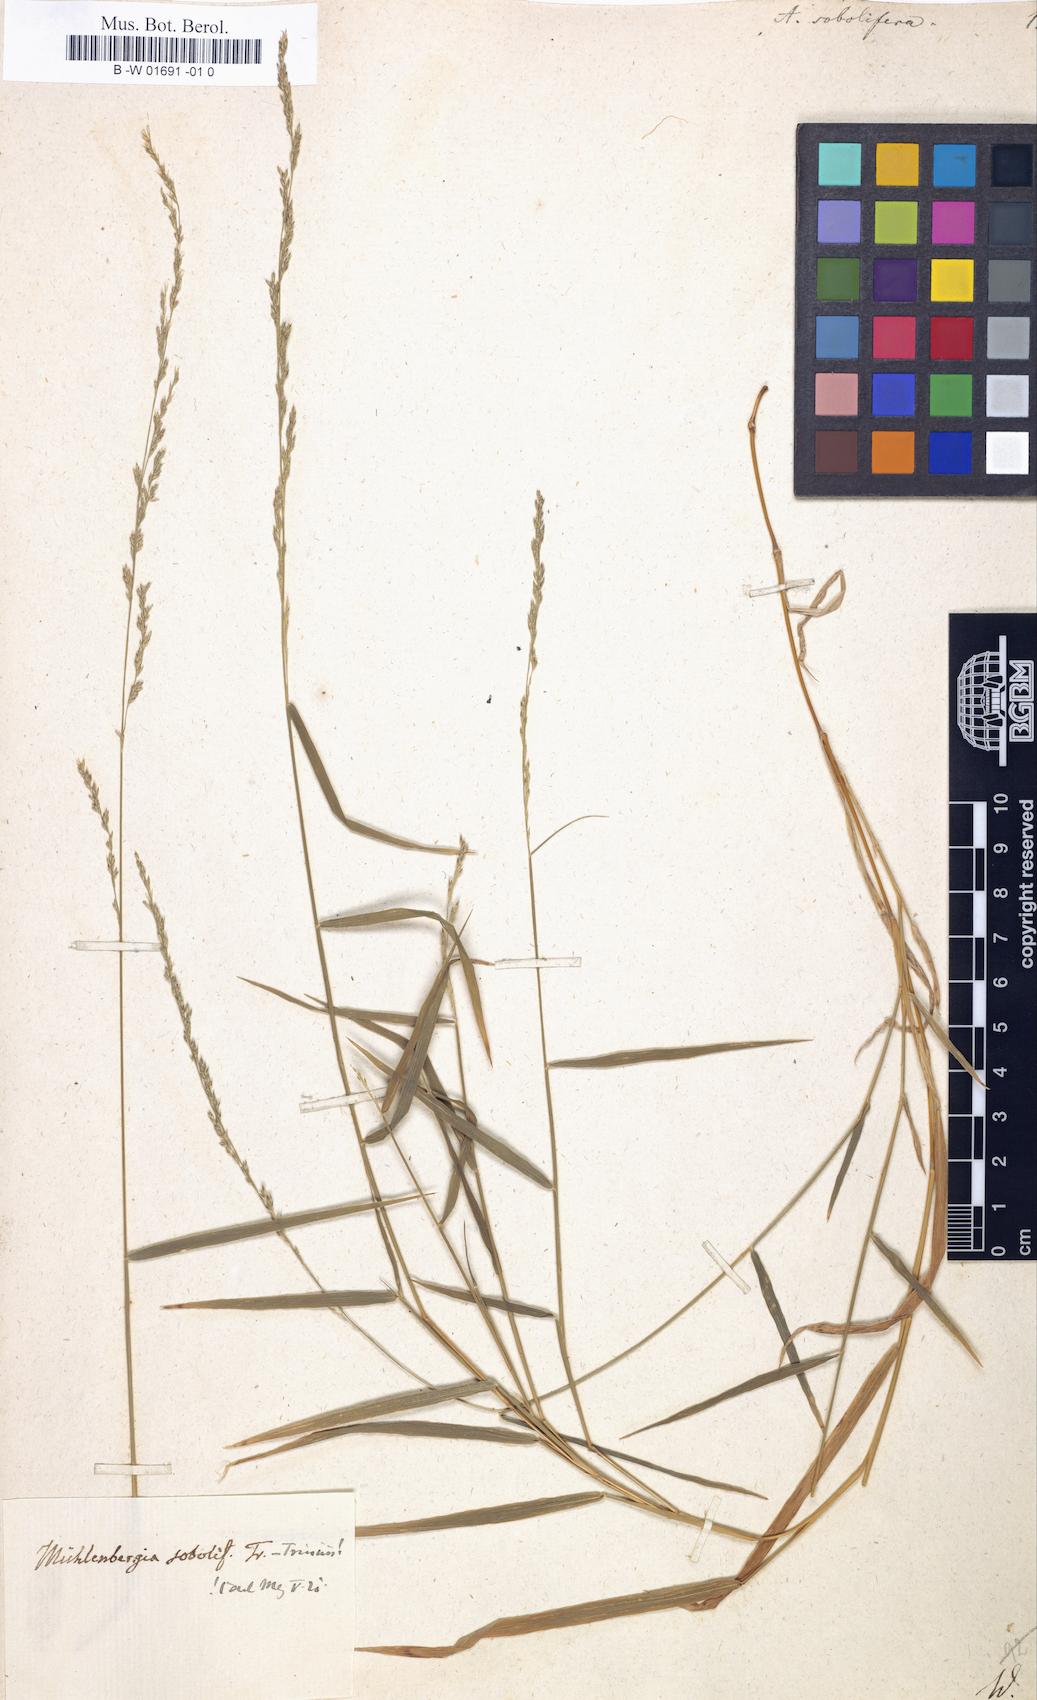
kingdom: Plantae
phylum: Tracheophyta
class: Liliopsida
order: Poales
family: Poaceae
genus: Muhlenbergia
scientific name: Muhlenbergia sobolifera
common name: Creeping muhly
